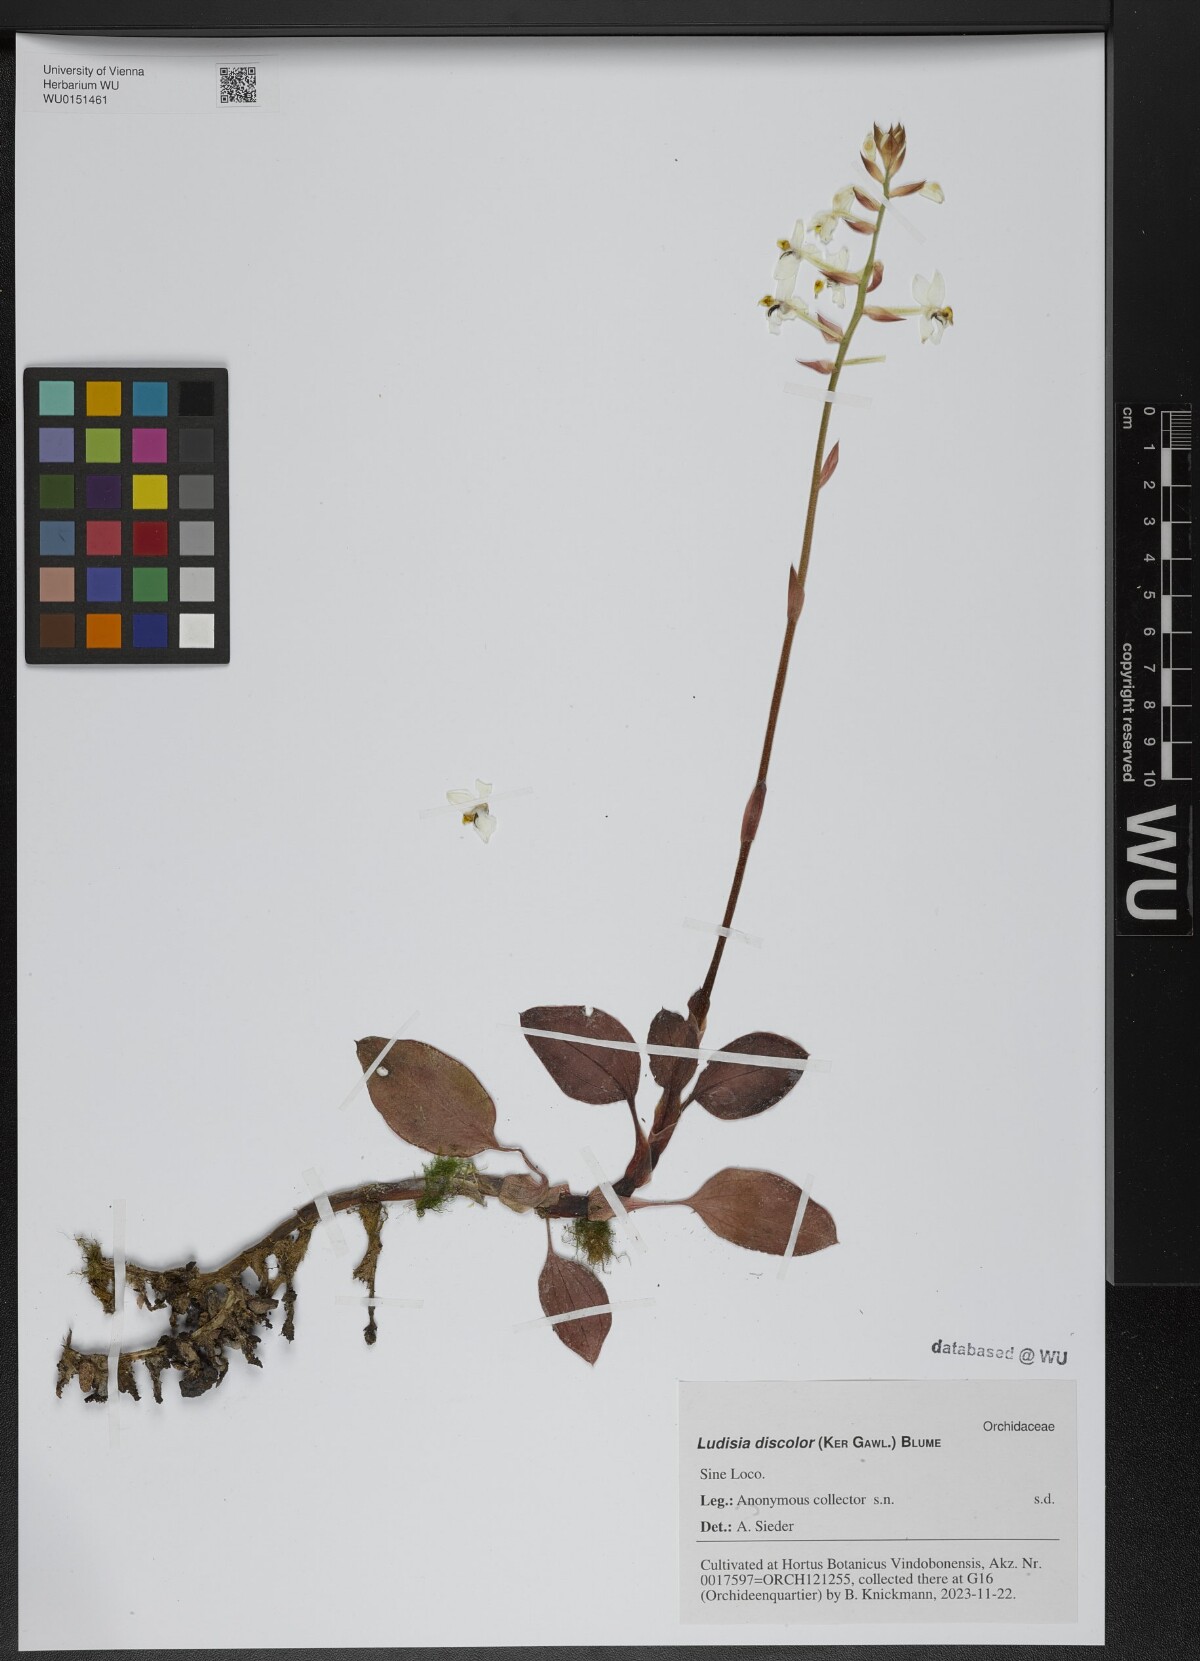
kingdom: Plantae
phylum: Tracheophyta
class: Liliopsida
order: Asparagales
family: Orchidaceae
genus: Ludisia
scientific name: Ludisia discolor
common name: Jewel orchid
